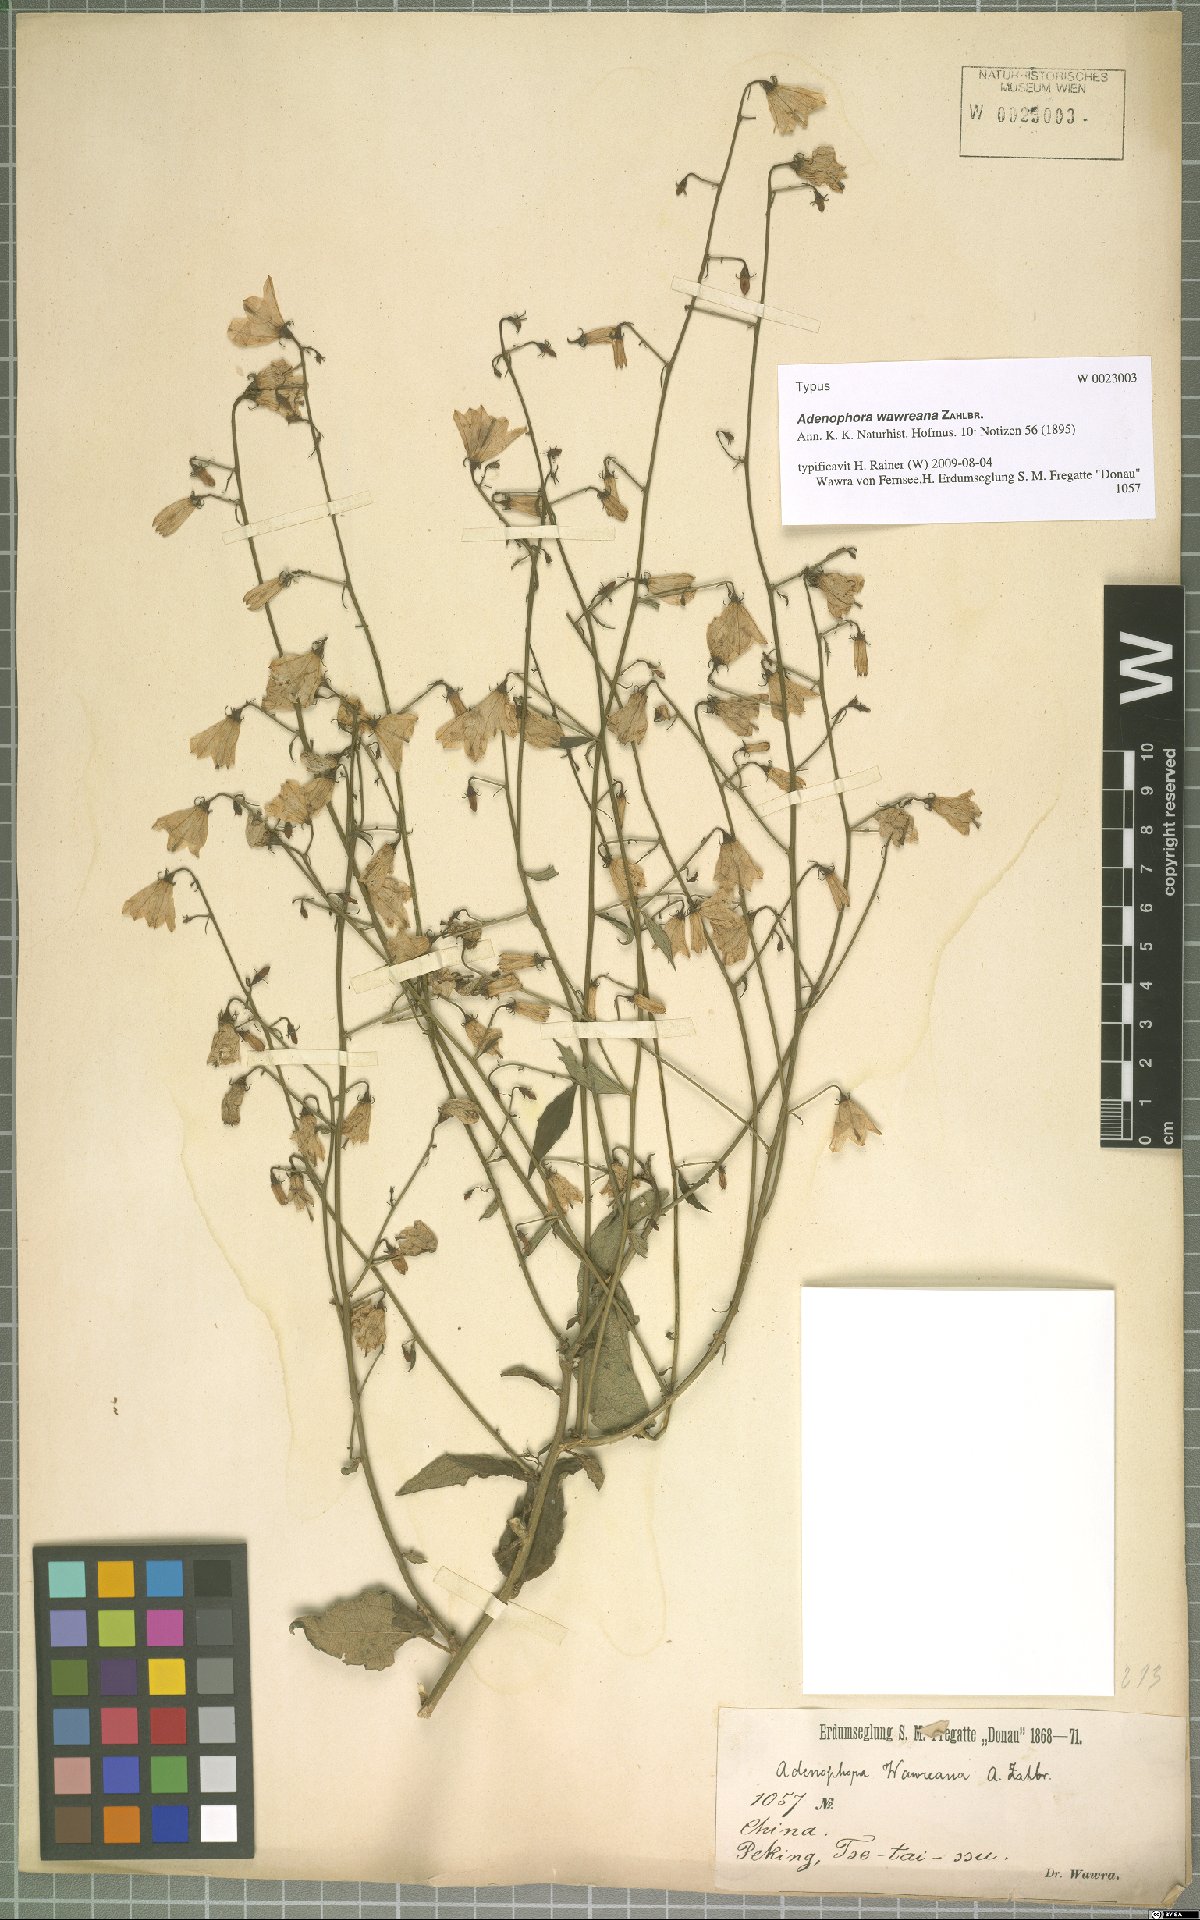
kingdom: Plantae
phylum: Tracheophyta
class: Magnoliopsida
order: Asterales
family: Campanulaceae
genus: Adenophora
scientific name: Adenophora potaninii
